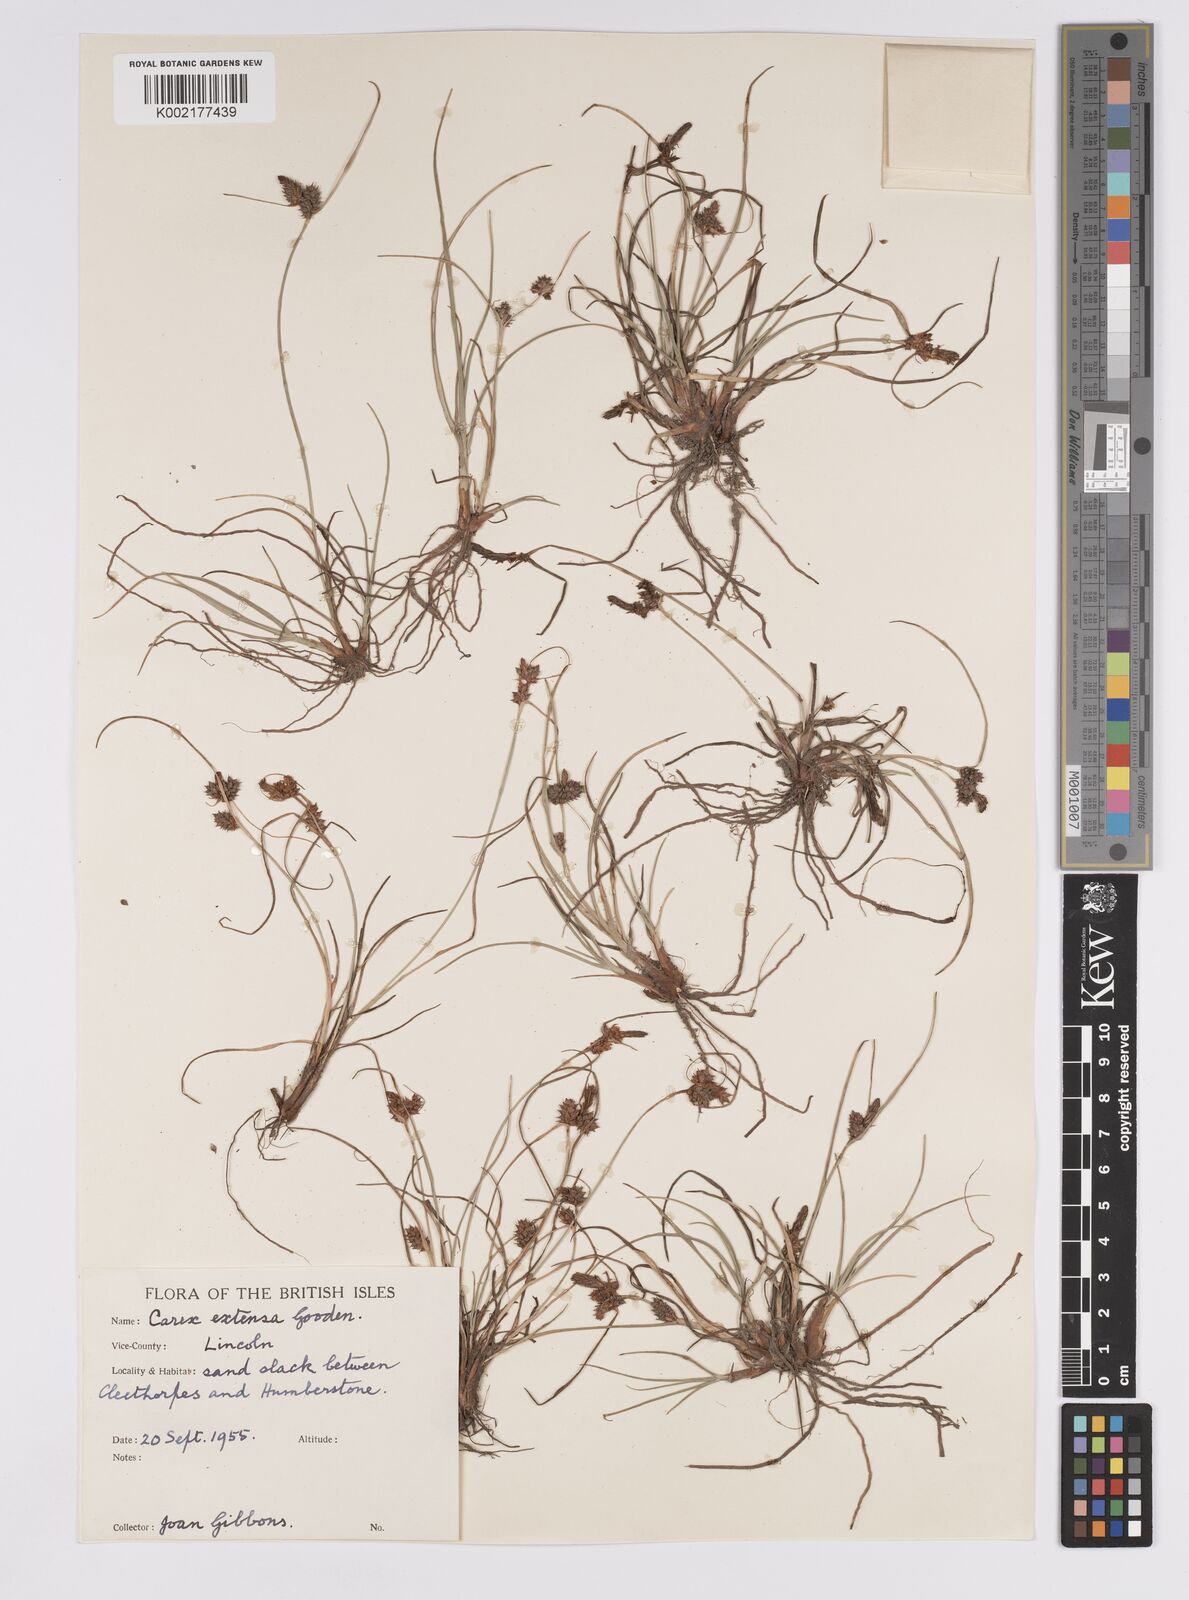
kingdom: Plantae
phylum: Tracheophyta
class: Liliopsida
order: Poales
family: Cyperaceae
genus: Carex
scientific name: Carex extensa
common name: Long-bracted sedge
